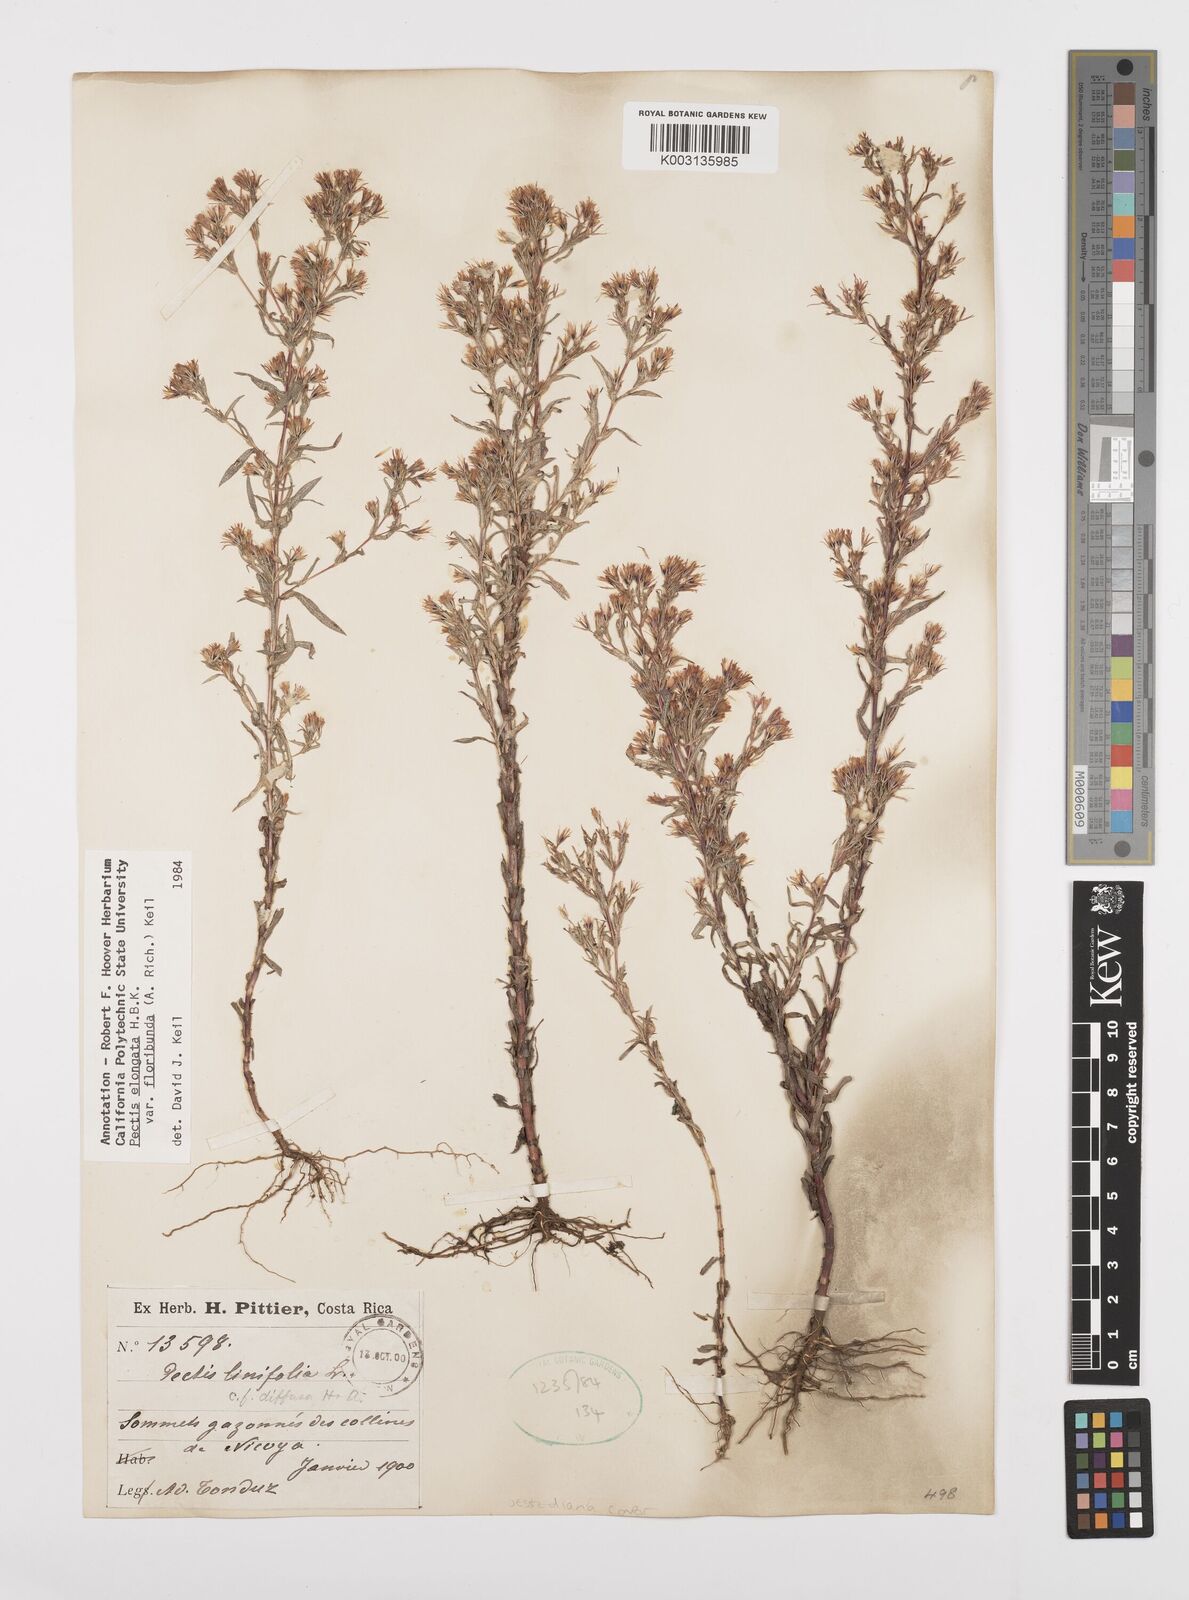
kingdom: Plantae
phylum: Tracheophyta
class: Magnoliopsida
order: Asterales
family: Asteraceae
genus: Pectis
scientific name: Pectis elongata
